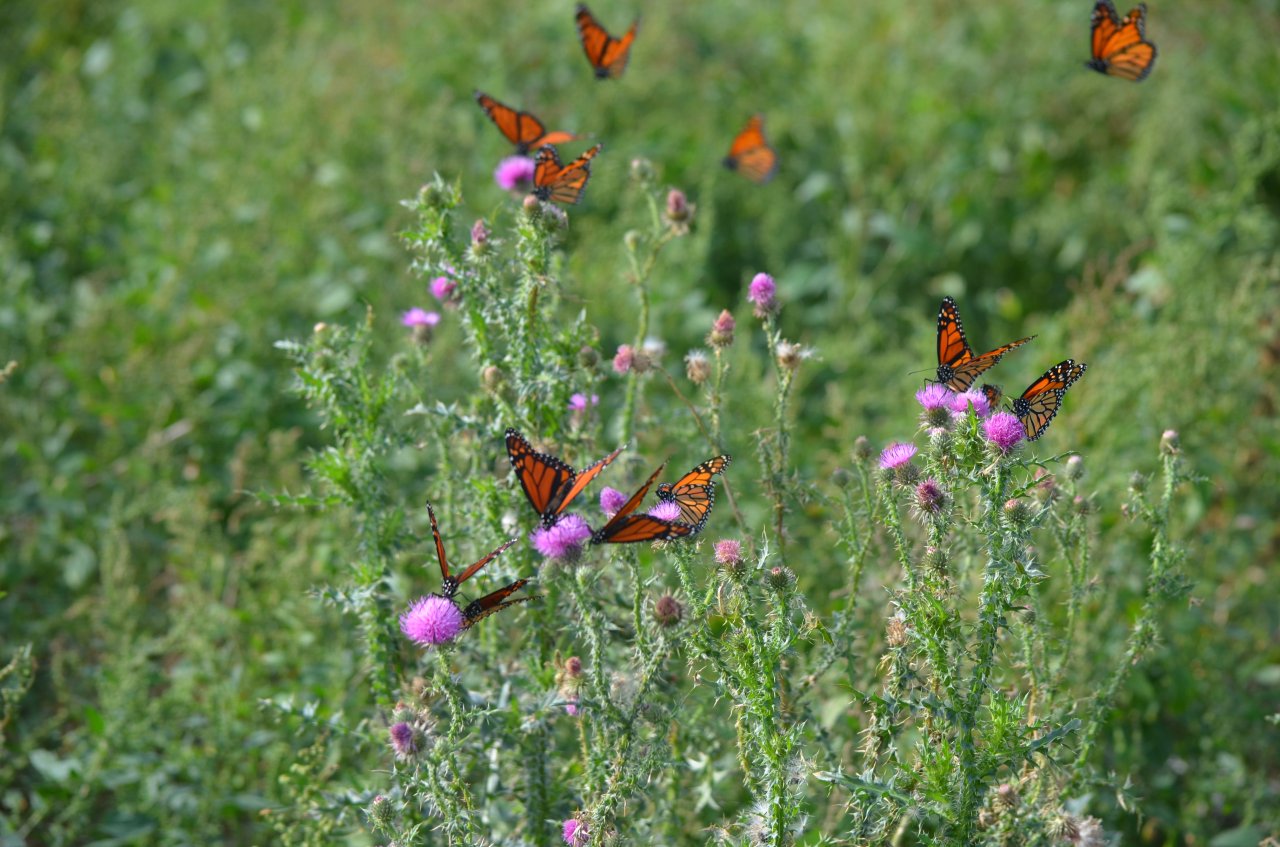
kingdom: Animalia
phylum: Arthropoda
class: Insecta
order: Lepidoptera
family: Nymphalidae
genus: Danaus
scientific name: Danaus plexippus
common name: Monarch
